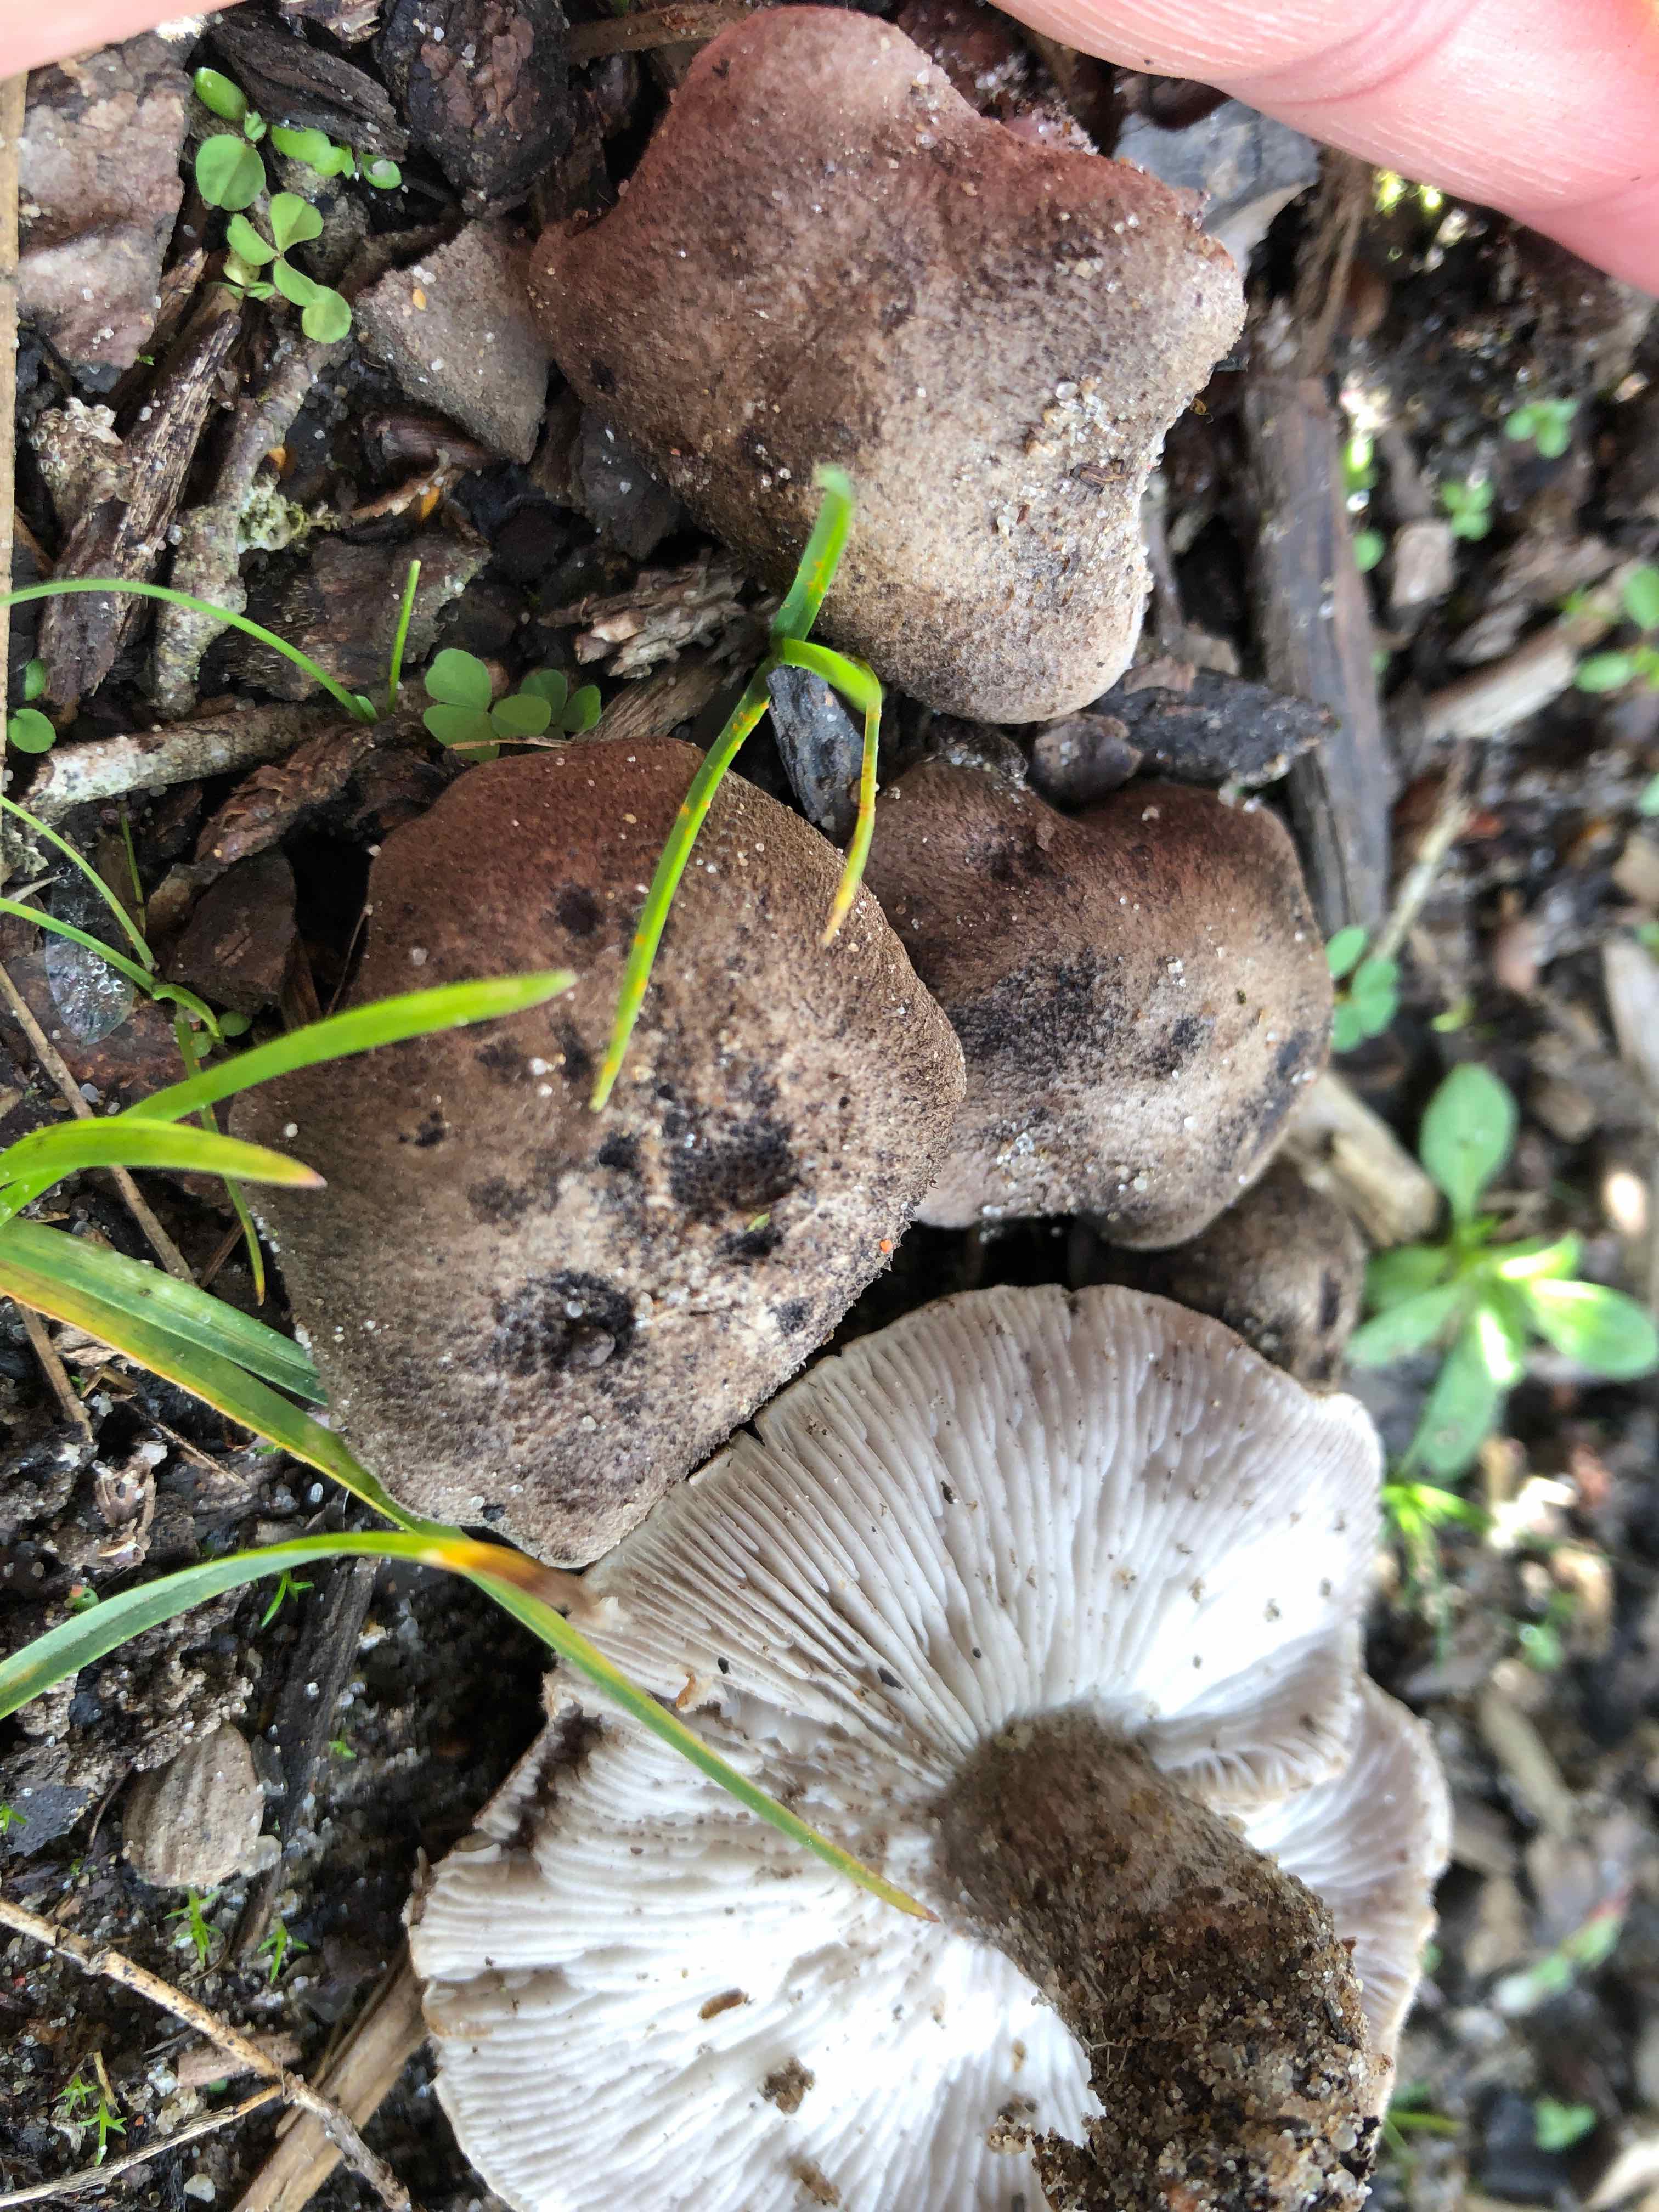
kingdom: Fungi
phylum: Basidiomycota
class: Agaricomycetes
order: Agaricales
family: Tricholomataceae
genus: Tricholoma
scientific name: Tricholoma scalpturatum
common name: gulplettet ridderhat
